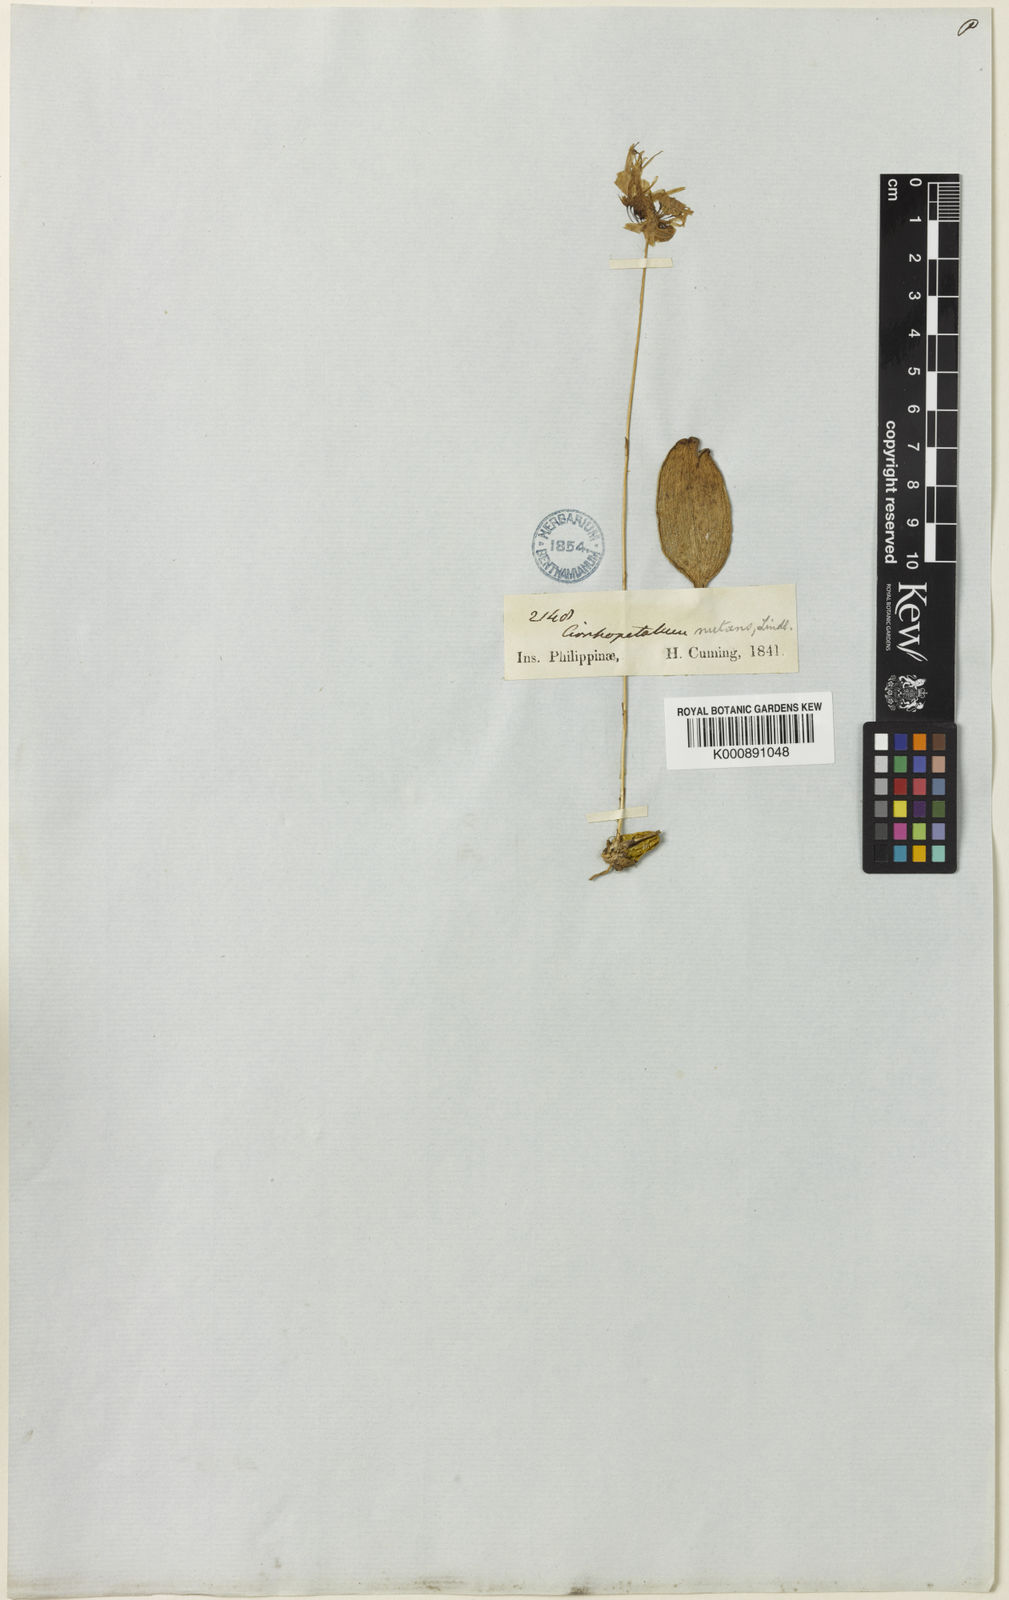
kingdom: Plantae
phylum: Tracheophyta
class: Liliopsida
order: Asparagales
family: Orchidaceae
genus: Bulbophyllum
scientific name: Bulbophyllum othonis
